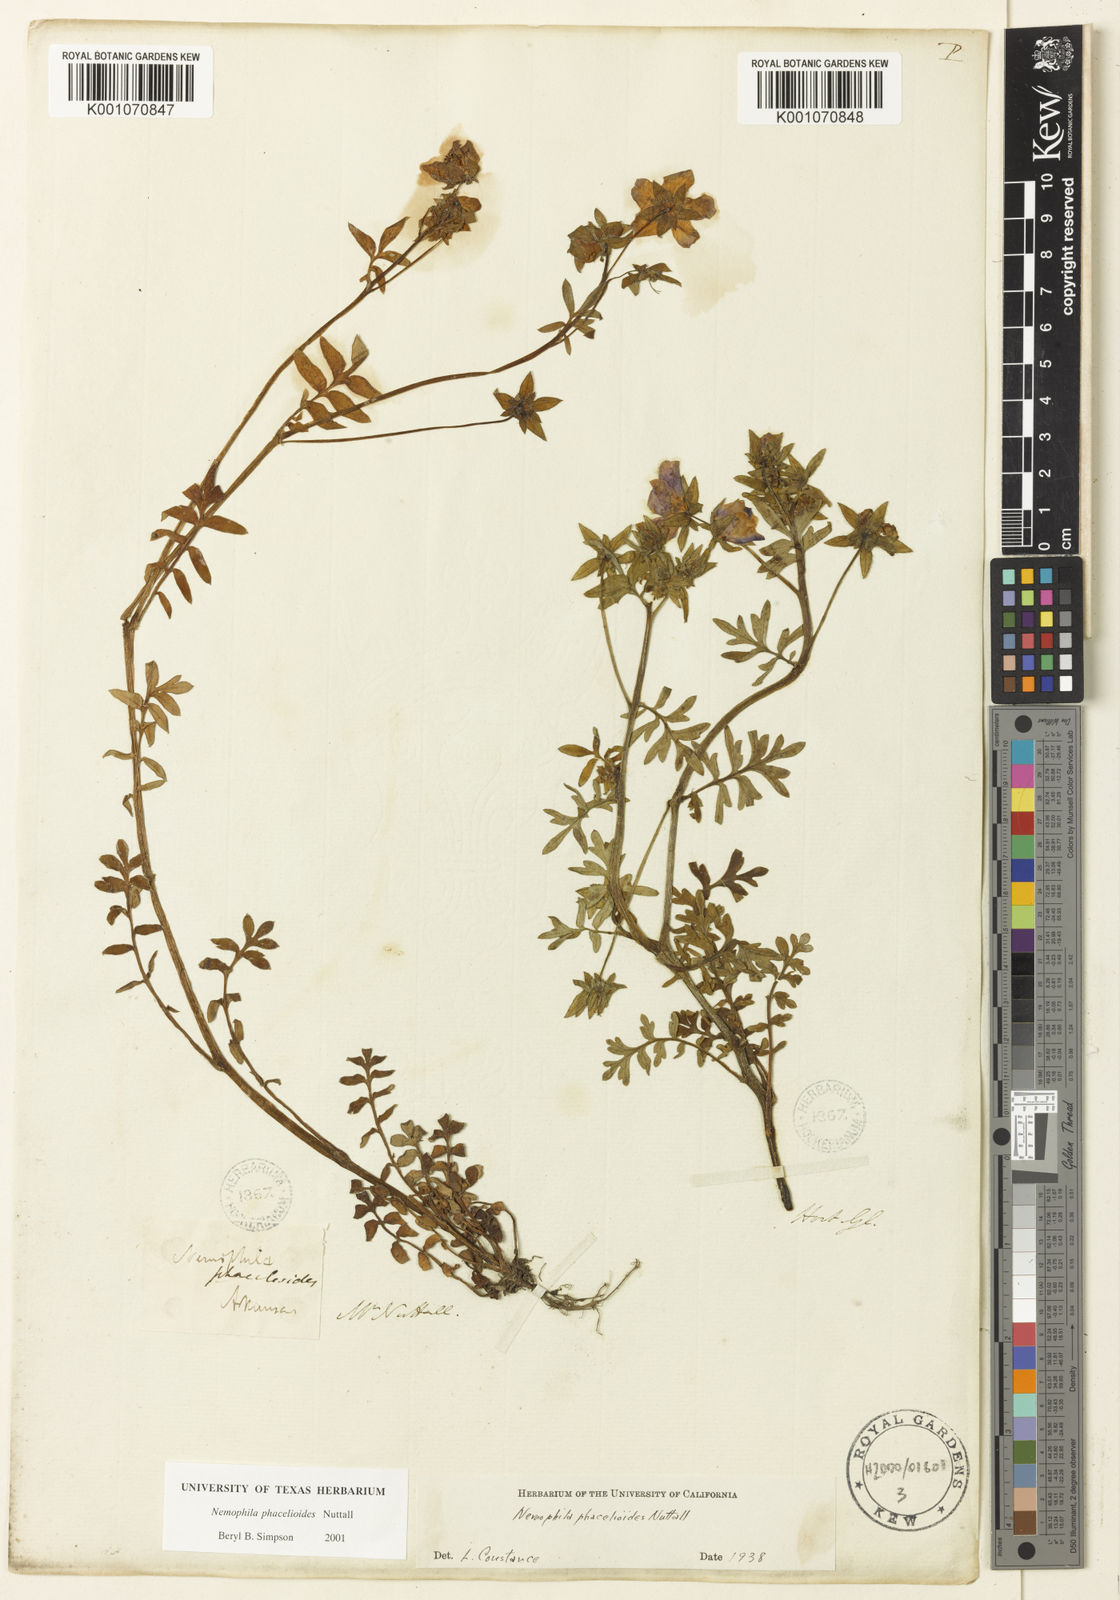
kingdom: Plantae
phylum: Tracheophyta
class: Magnoliopsida
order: Boraginales
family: Hydrophyllaceae
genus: Nemophila
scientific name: Nemophila
